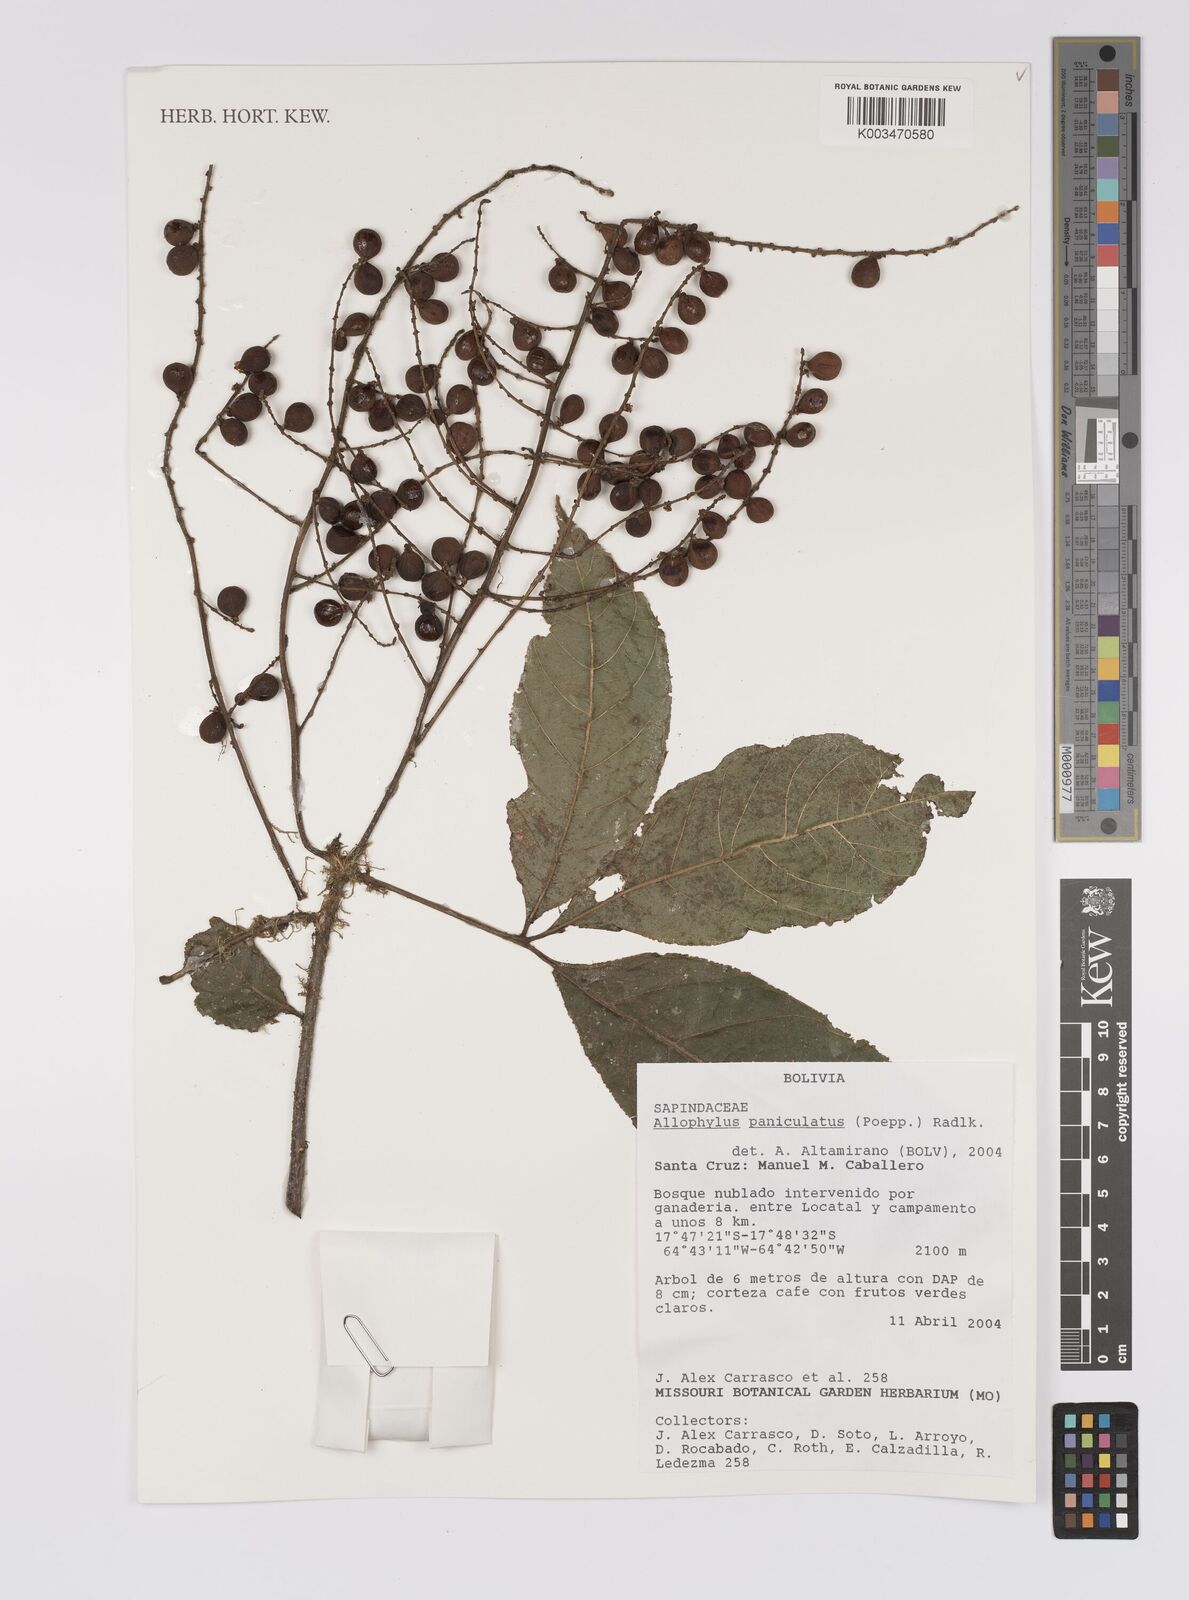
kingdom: Plantae
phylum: Tracheophyta
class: Magnoliopsida
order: Sapindales
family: Sapindaceae
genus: Allophylus
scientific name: Allophylus paniculatus
